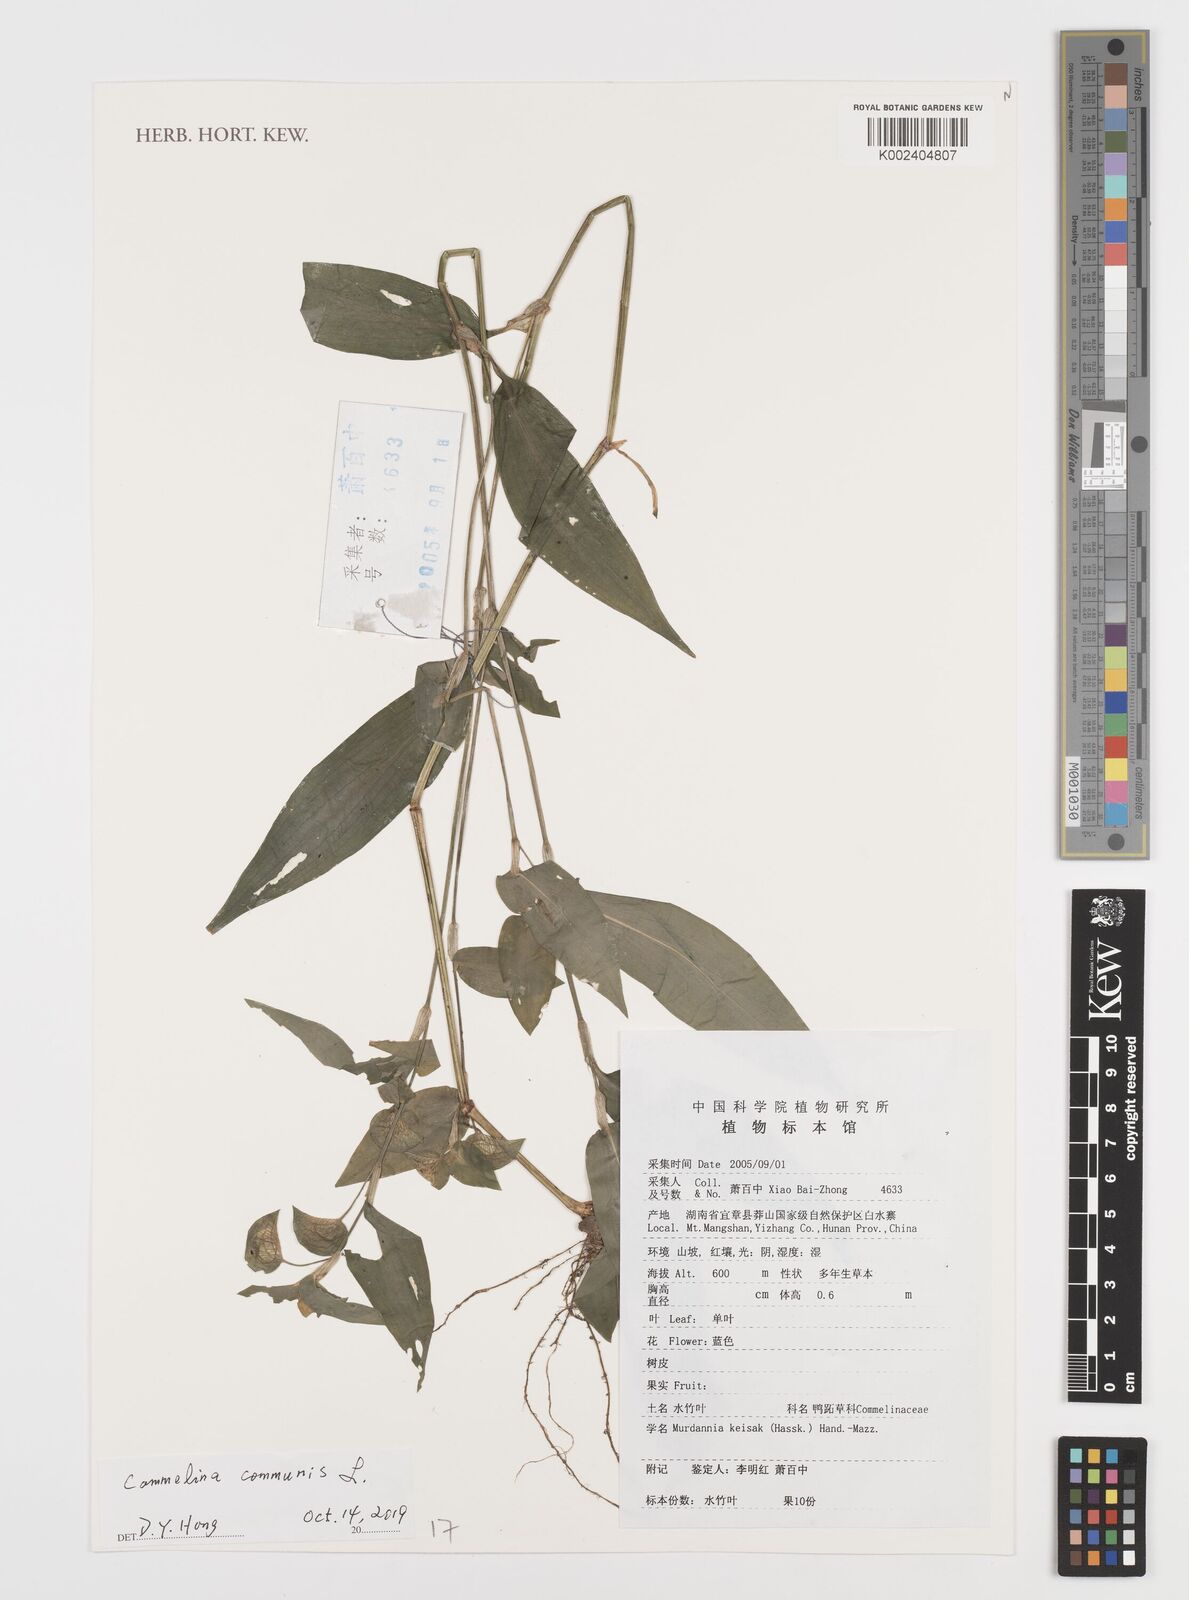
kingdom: Plantae
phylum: Tracheophyta
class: Liliopsida
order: Commelinales
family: Commelinaceae
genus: Commelina
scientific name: Commelina communis
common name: Asiatic dayflower
